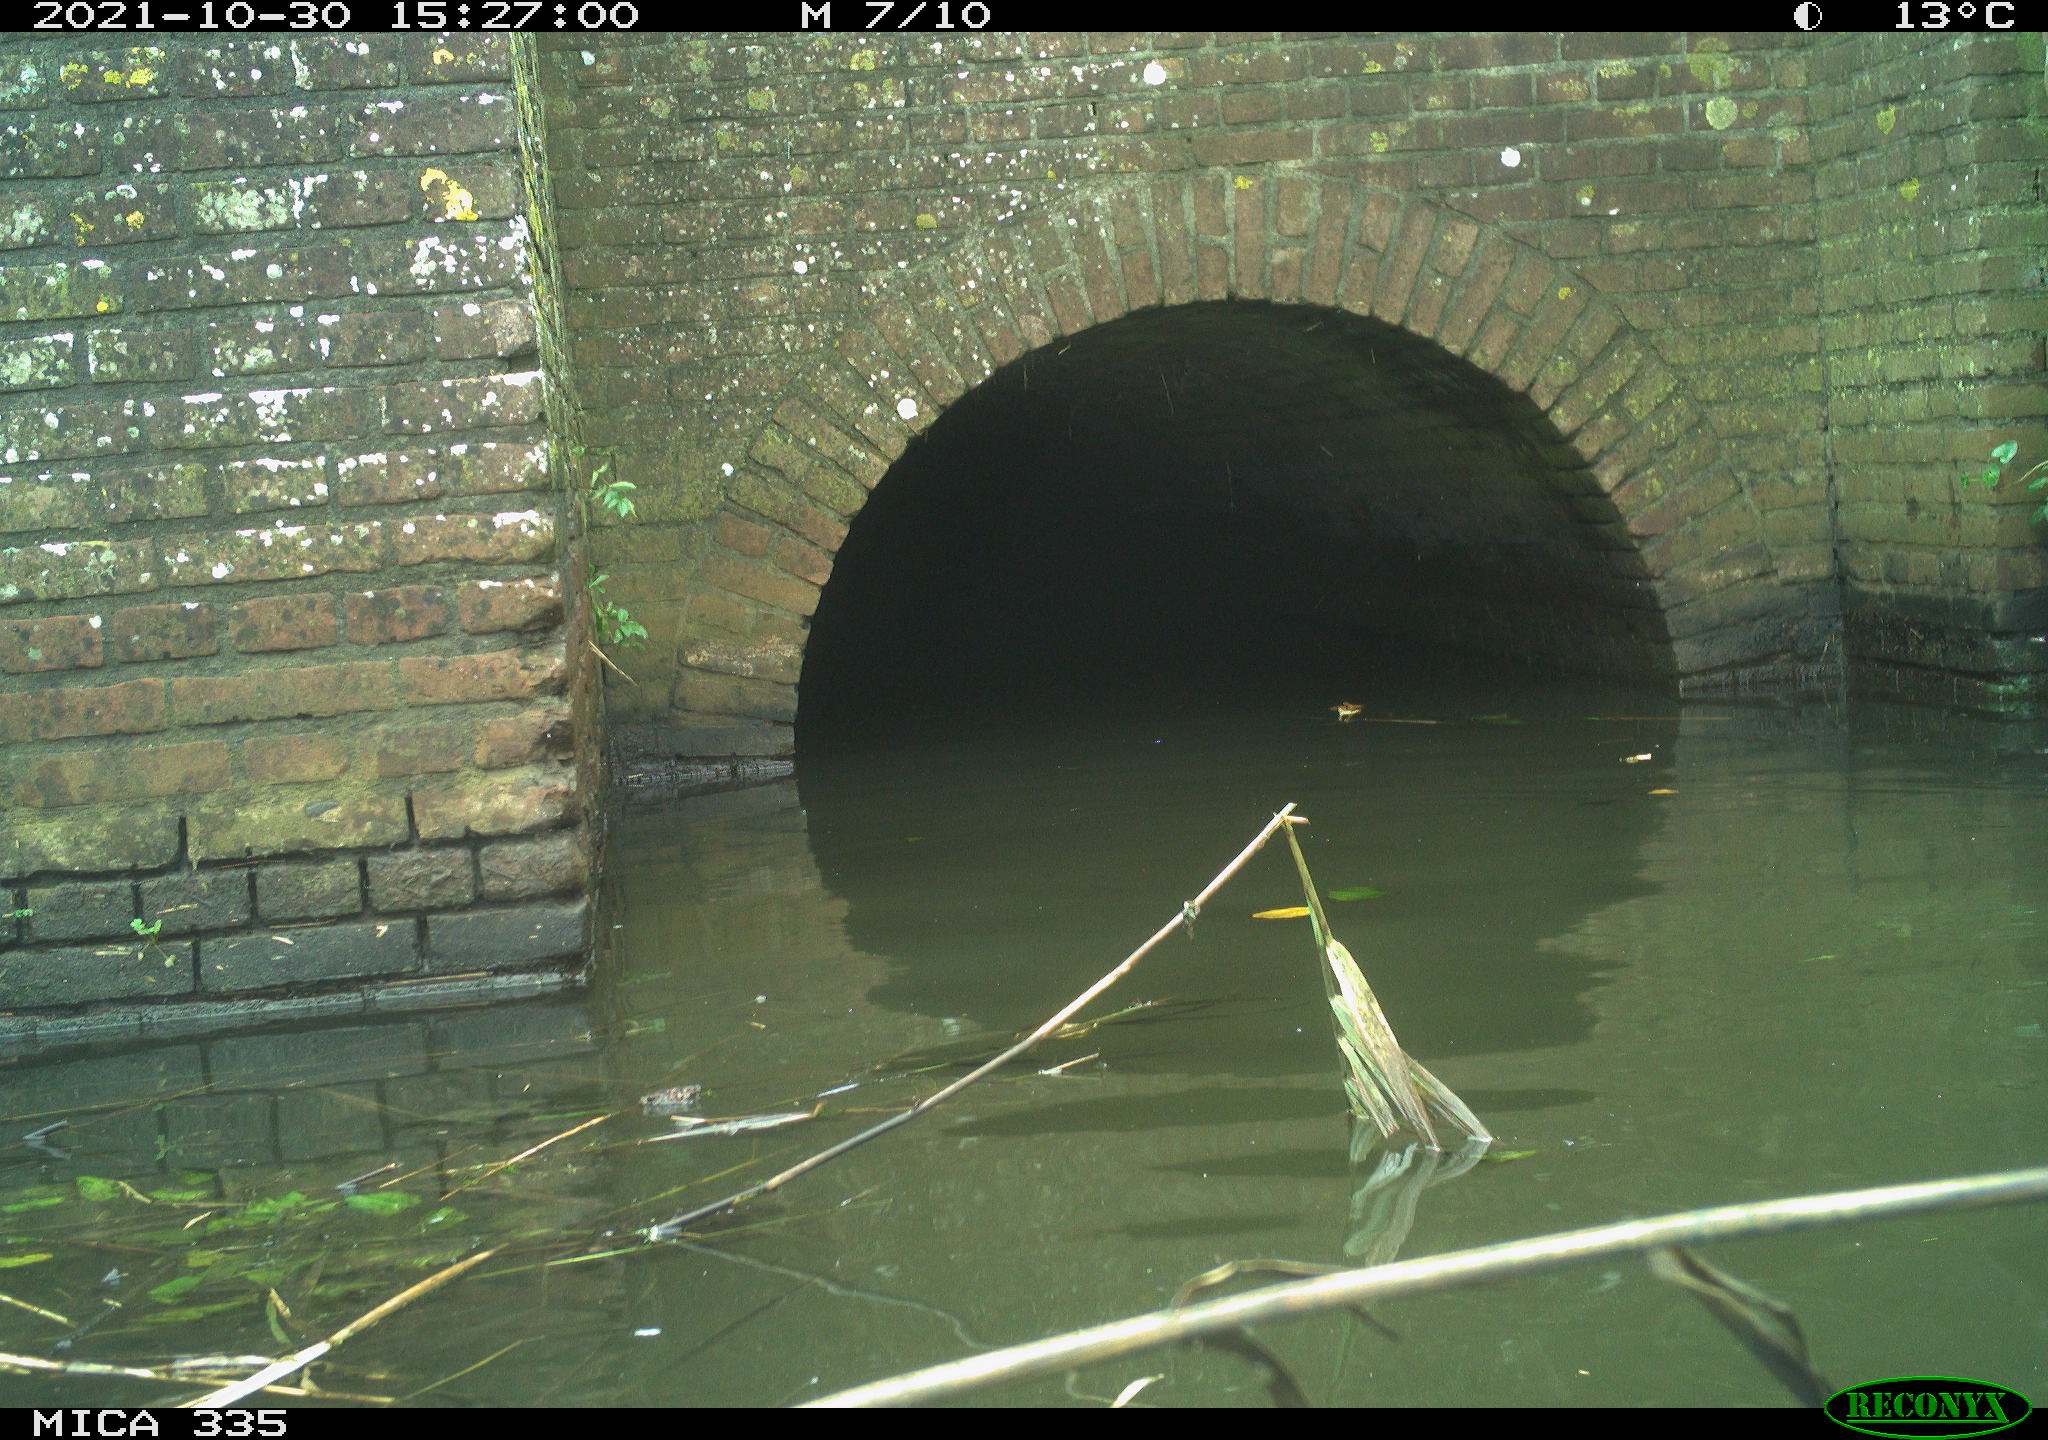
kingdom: Animalia
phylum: Chordata
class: Aves
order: Anseriformes
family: Anatidae
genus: Anas
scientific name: Anas platyrhynchos
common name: Mallard
